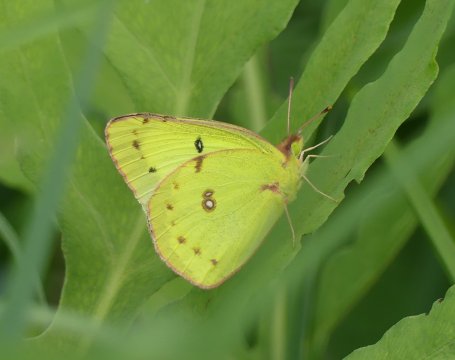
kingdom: Animalia
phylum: Arthropoda
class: Insecta
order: Lepidoptera
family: Pieridae
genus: Colias
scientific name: Colias philodice
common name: Clouded Sulphur
